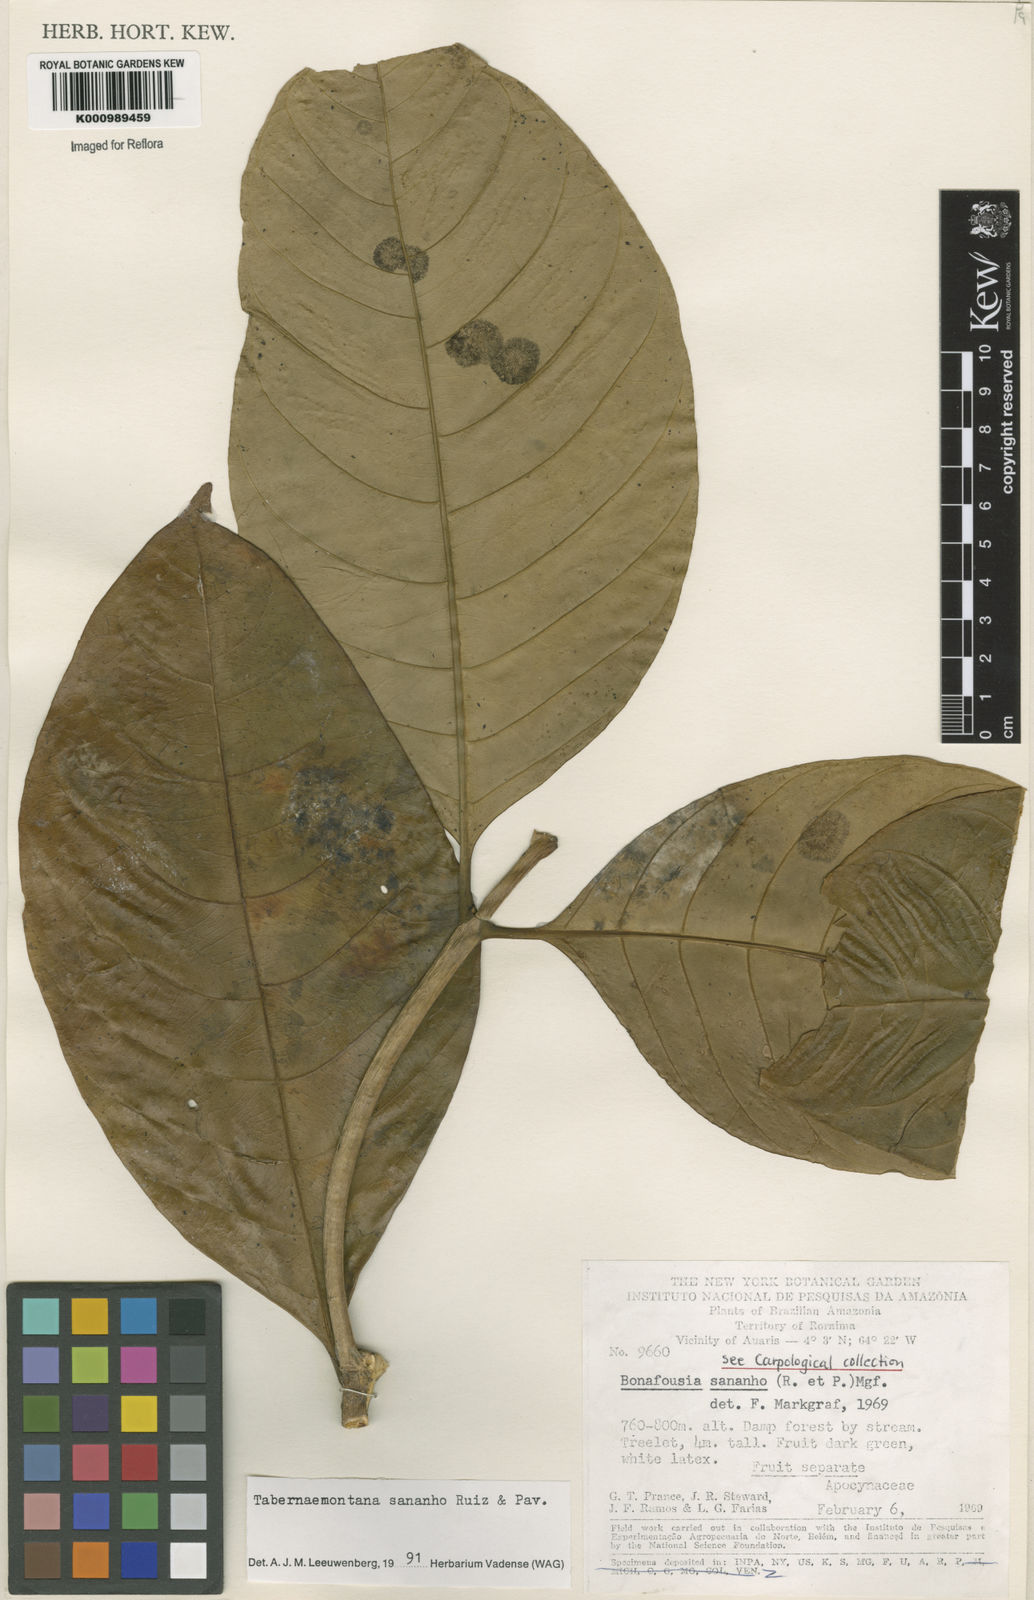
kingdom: Plantae
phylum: Tracheophyta
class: Magnoliopsida
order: Gentianales
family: Apocynaceae
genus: Tabernaemontana
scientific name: Tabernaemontana sananho
